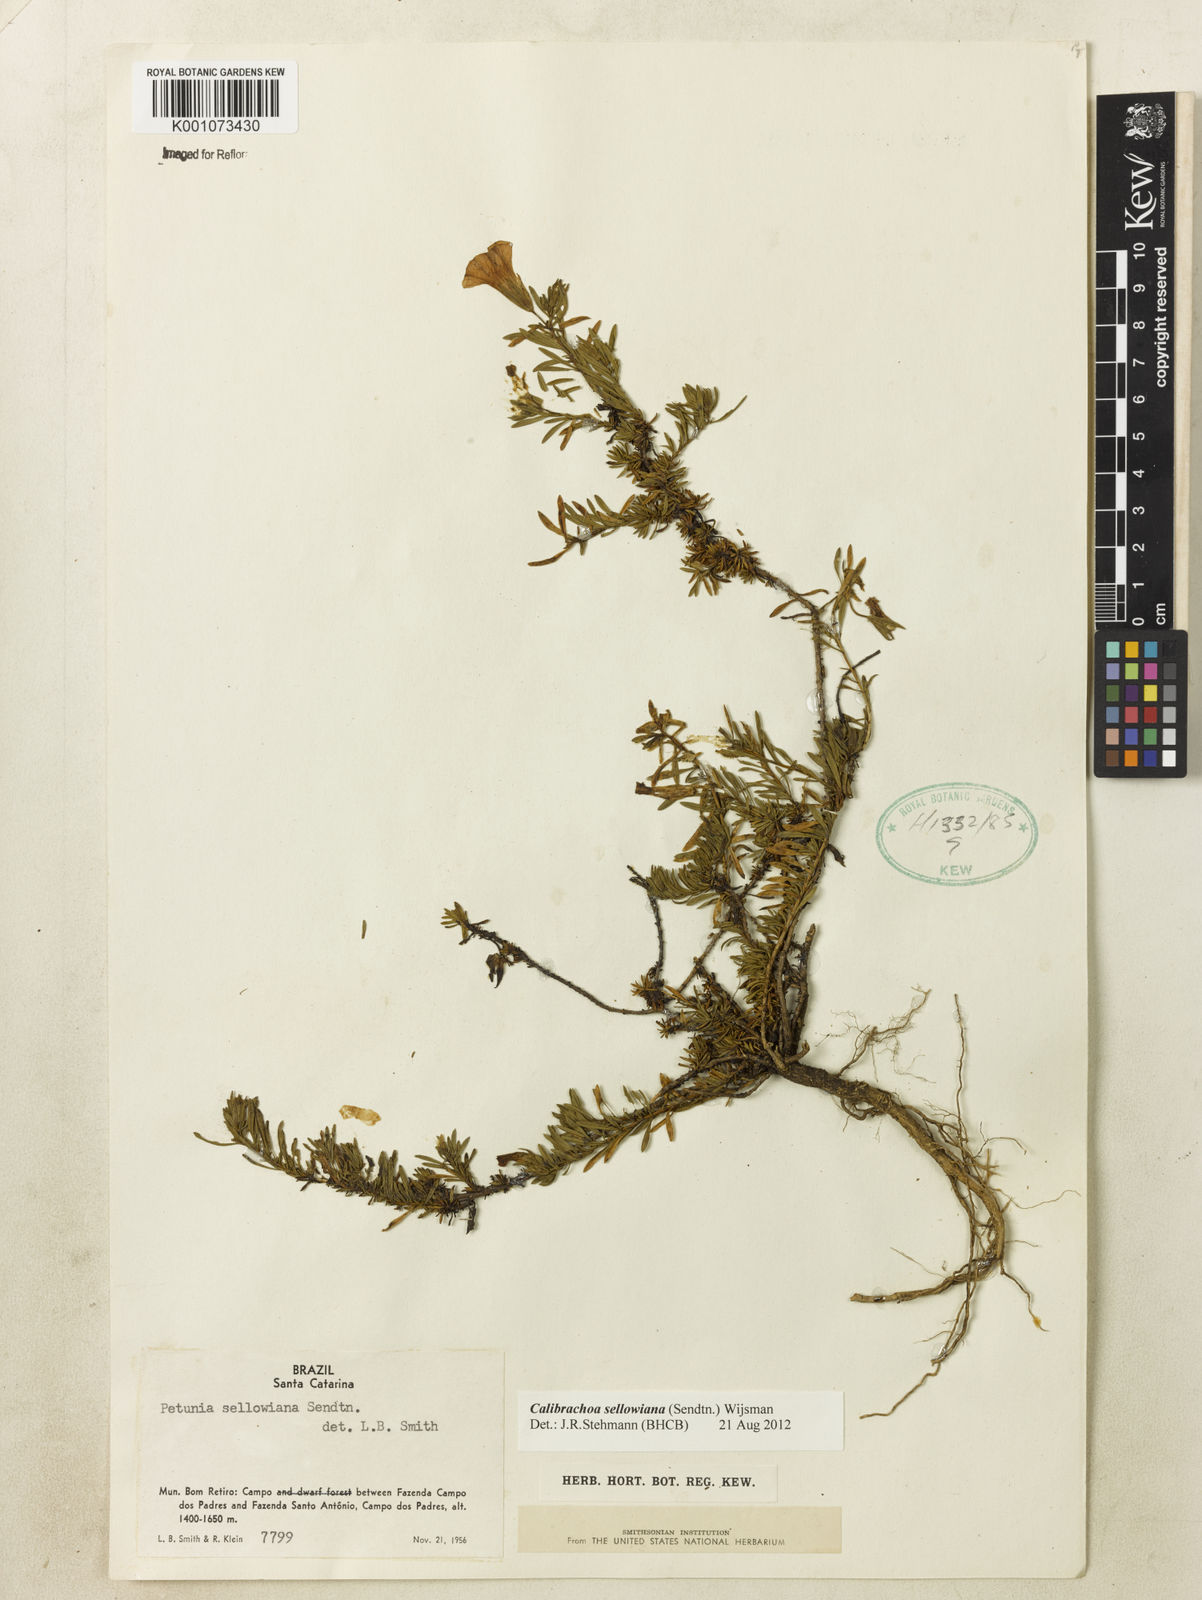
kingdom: Plantae
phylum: Tracheophyta
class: Magnoliopsida
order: Solanales
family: Solanaceae
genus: Calibrachoa
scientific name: Calibrachoa sellowiana
